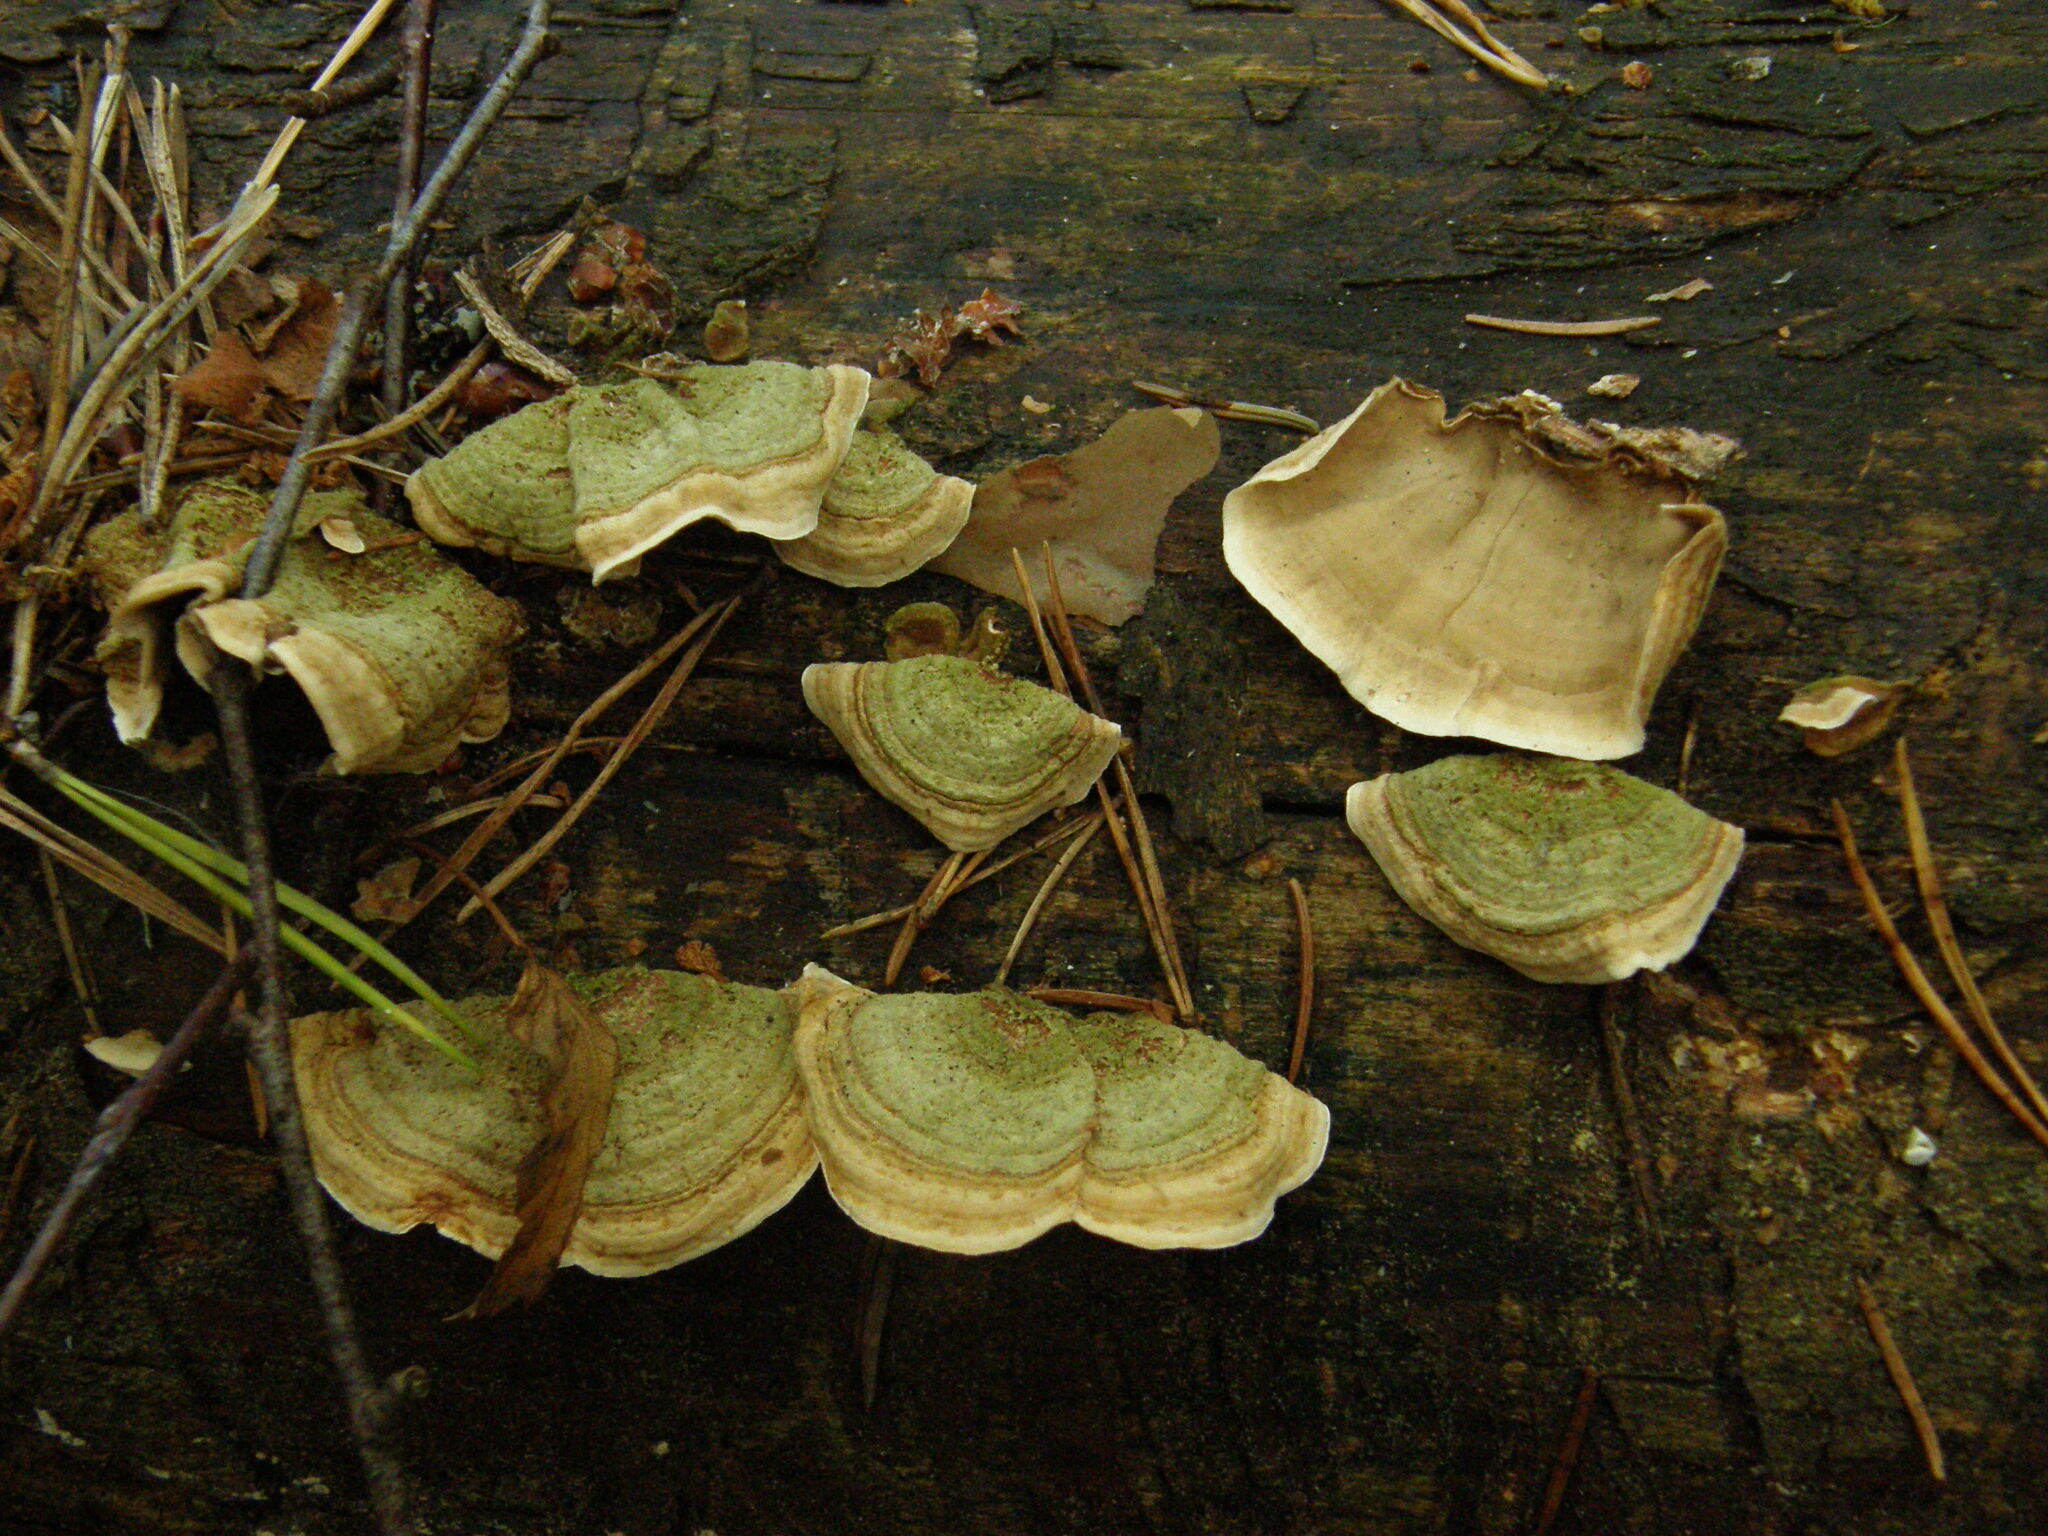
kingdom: Fungi
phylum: Basidiomycota
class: Agaricomycetes
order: Russulales
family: Stereaceae
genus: Stereum
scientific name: Stereum subtomentosum
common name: Yellowing curtain crust
